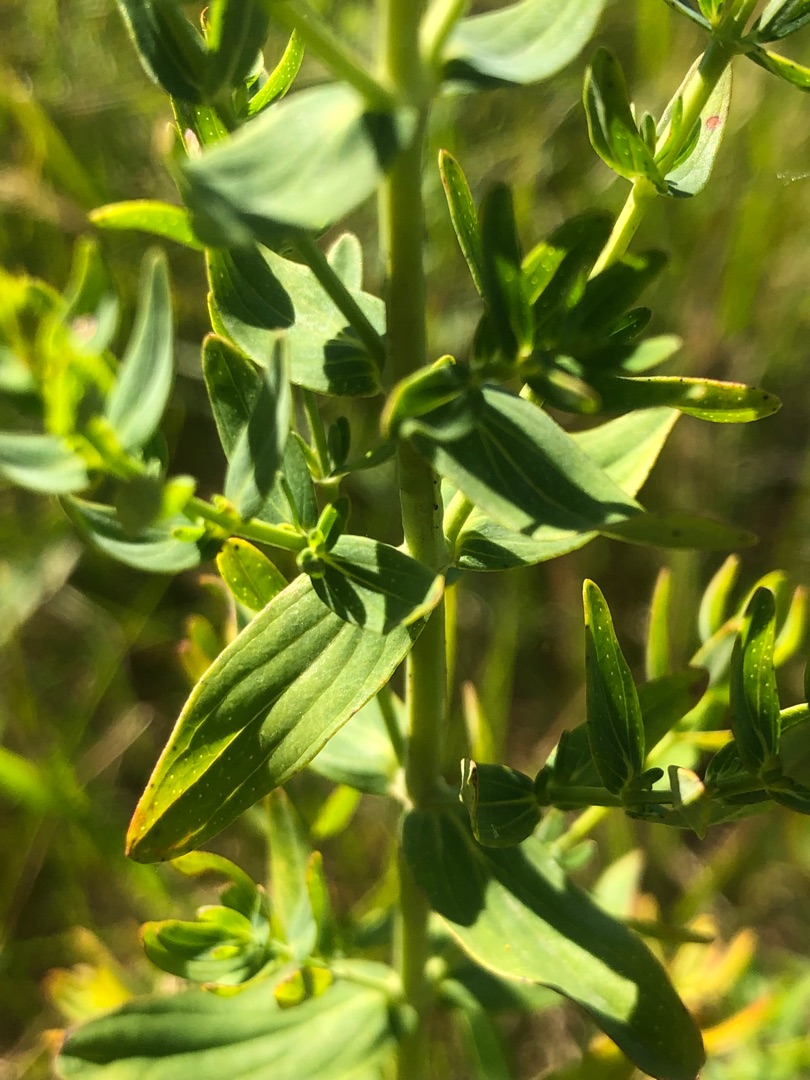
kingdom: Plantae
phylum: Tracheophyta
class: Magnoliopsida
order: Malpighiales
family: Hypericaceae
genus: Hypericum
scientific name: Hypericum perforatum
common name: Prikbladet perikon
